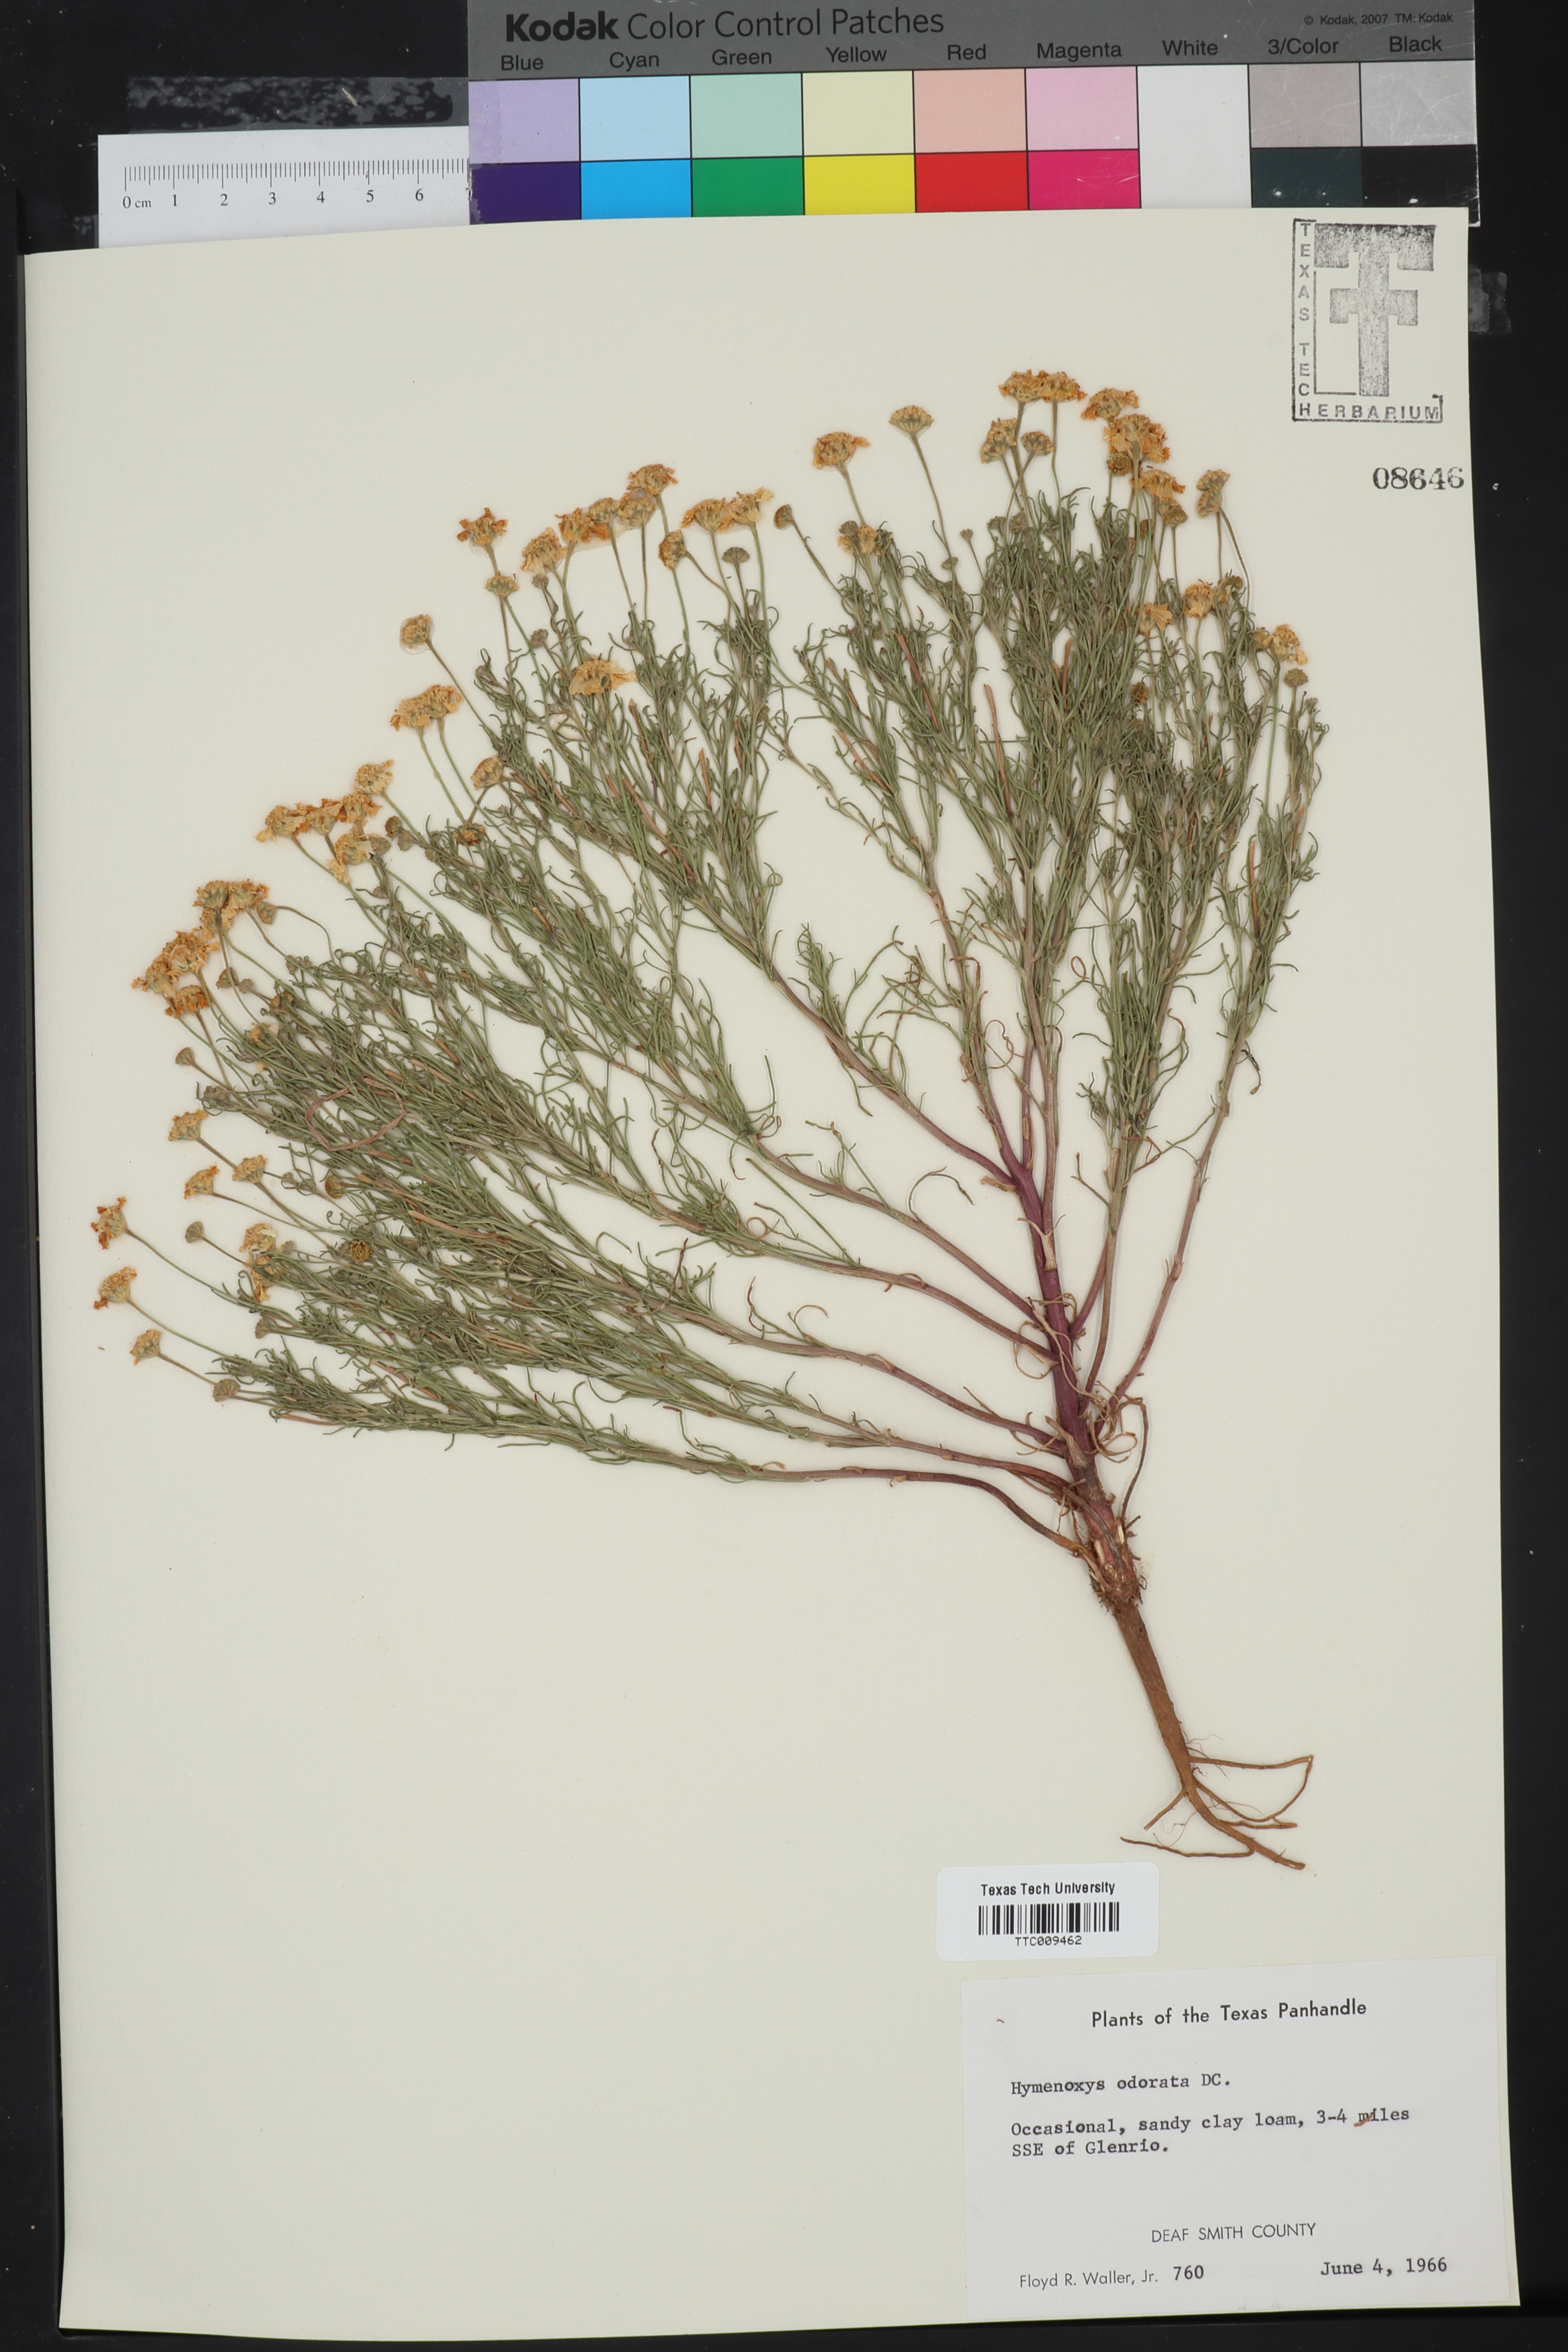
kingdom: Plantae
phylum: Tracheophyta
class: Magnoliopsida
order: Asterales
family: Asteraceae
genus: Hymenoxys
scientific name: Hymenoxys odorata
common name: Bitter rubberweed
